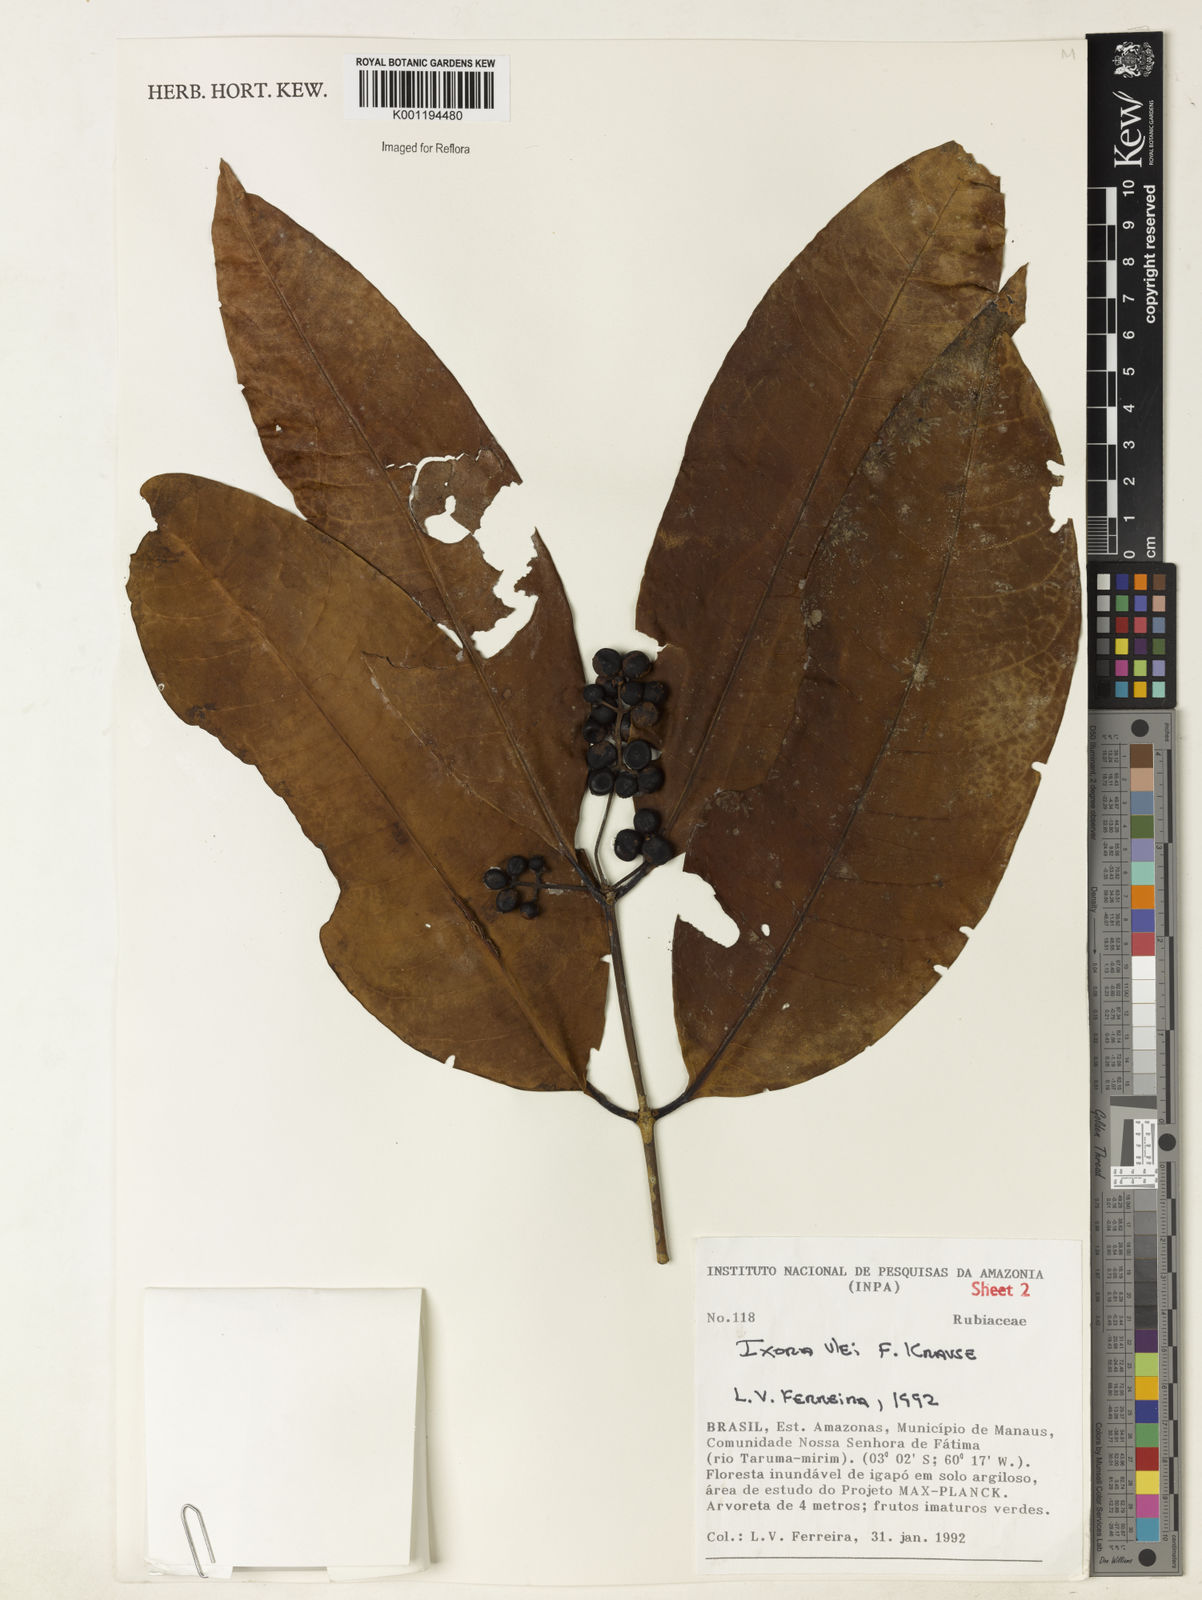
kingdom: Plantae
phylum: Tracheophyta
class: Magnoliopsida
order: Gentianales
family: Rubiaceae
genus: Ixora
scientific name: Ixora sparsifolia
